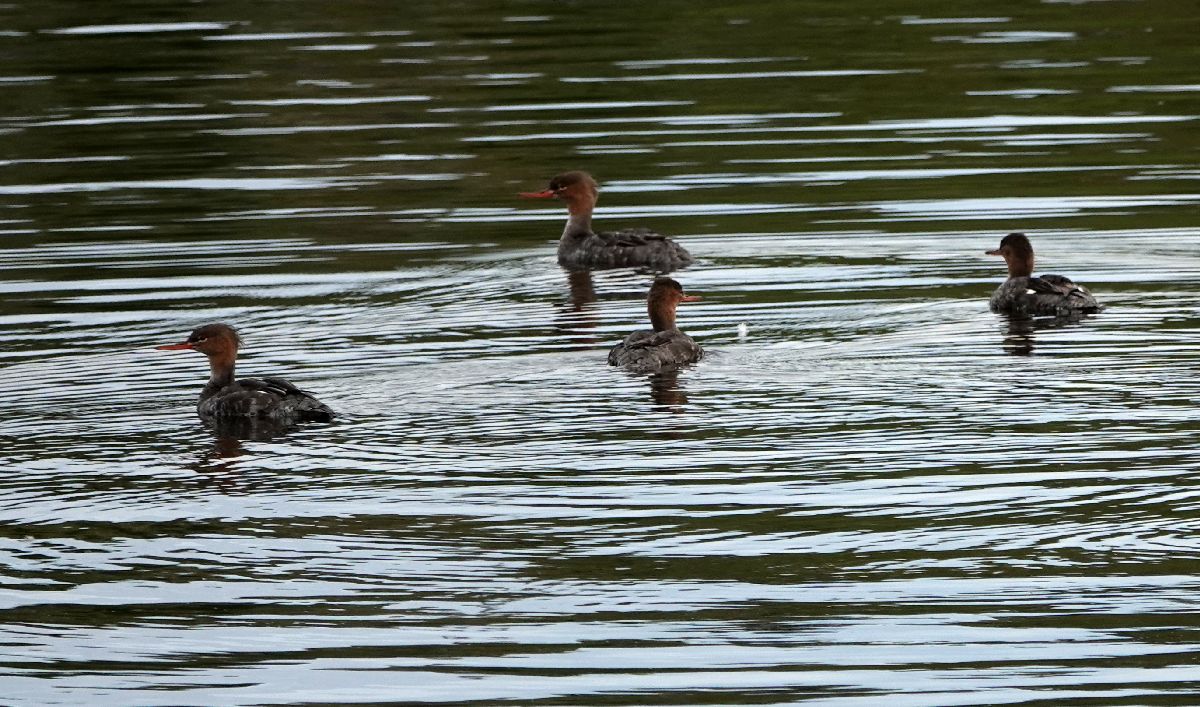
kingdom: Animalia
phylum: Chordata
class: Aves
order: Anseriformes
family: Anatidae
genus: Mergus
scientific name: Mergus serrator
